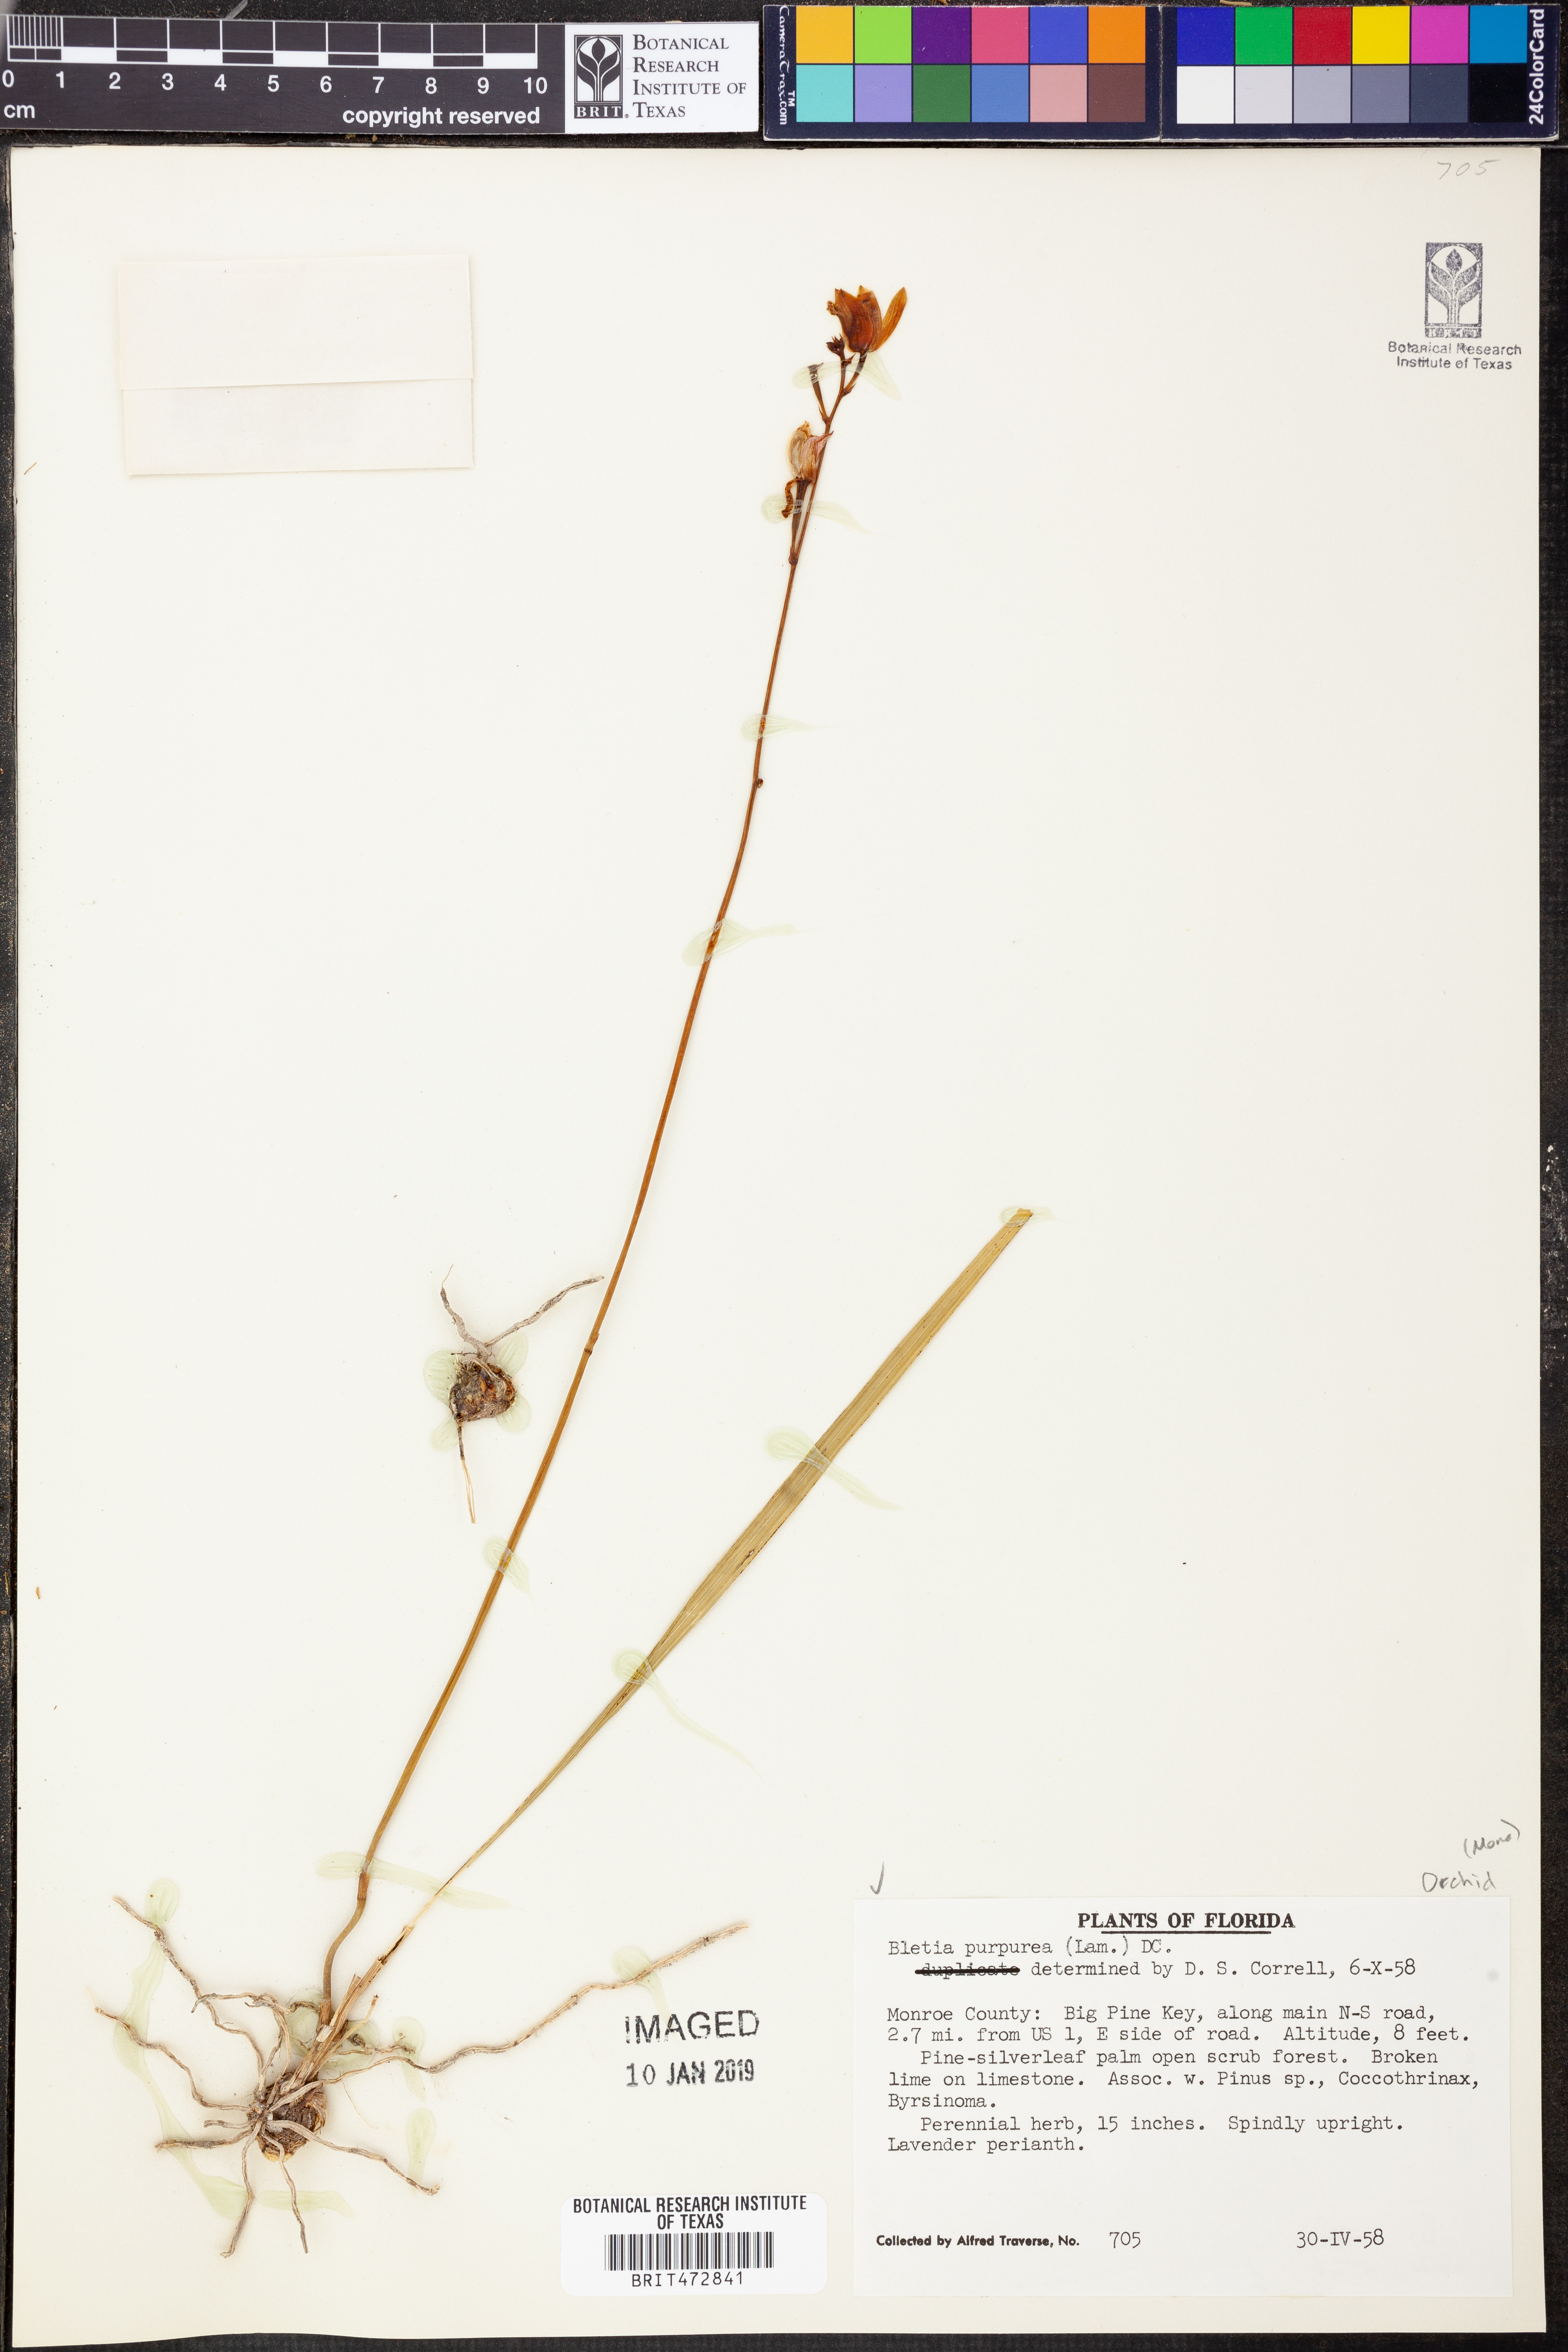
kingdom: Plantae
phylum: Tracheophyta
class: Liliopsida
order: Asparagales
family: Orchidaceae
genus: Bletia
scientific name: Bletia purpurea
